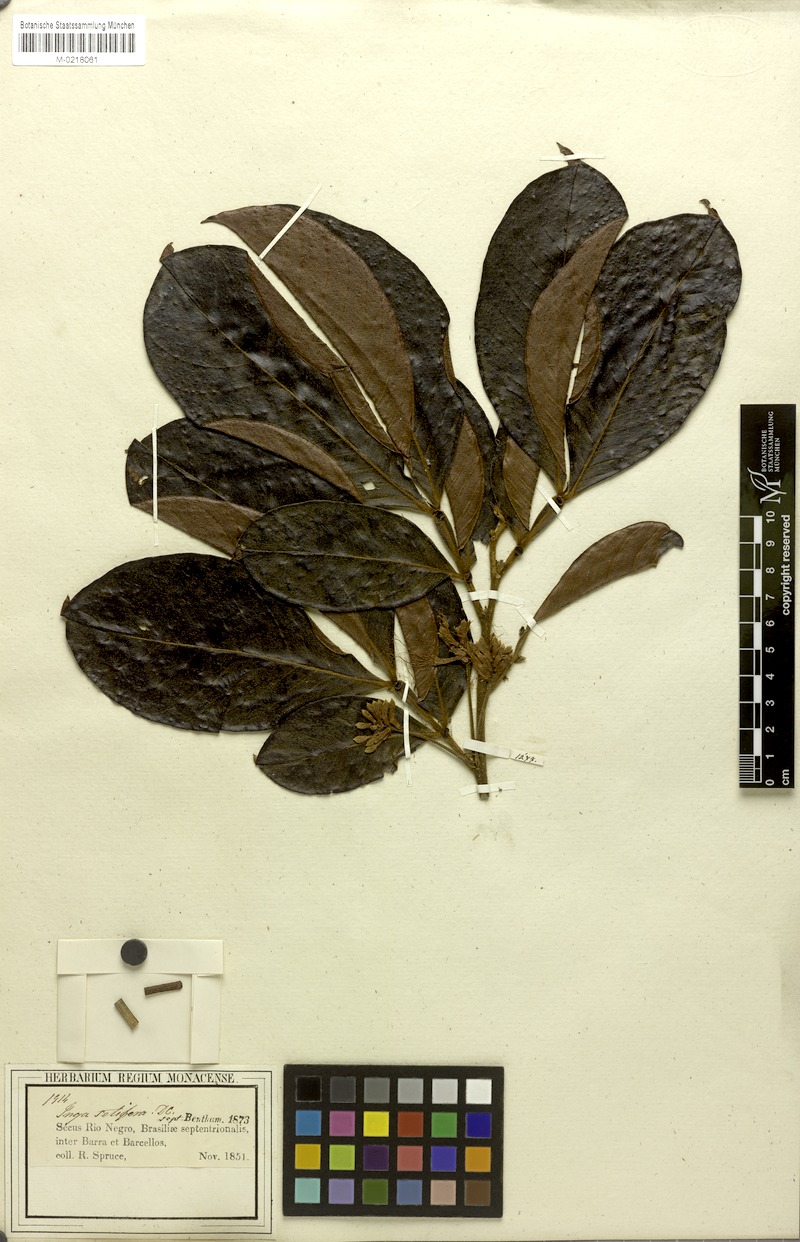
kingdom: Plantae
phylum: Tracheophyta
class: Magnoliopsida
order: Fabales
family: Fabaceae
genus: Inga
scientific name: Inga pilosula
